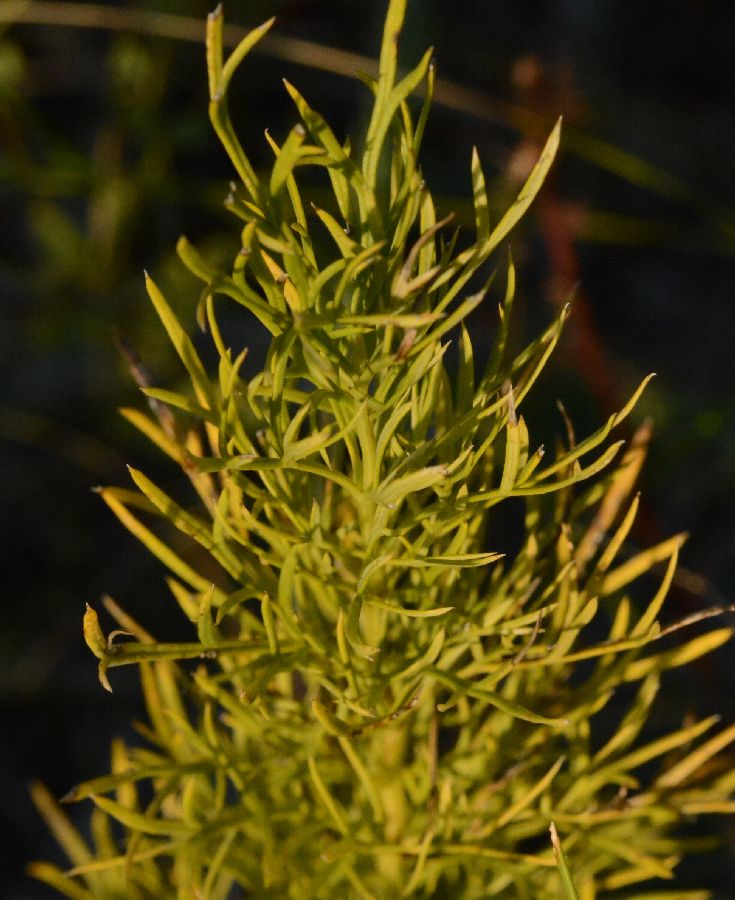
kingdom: Plantae
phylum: Tracheophyta
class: Magnoliopsida
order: Ranunculales
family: Ranunculaceae
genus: Adonis
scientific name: Adonis vernalis
